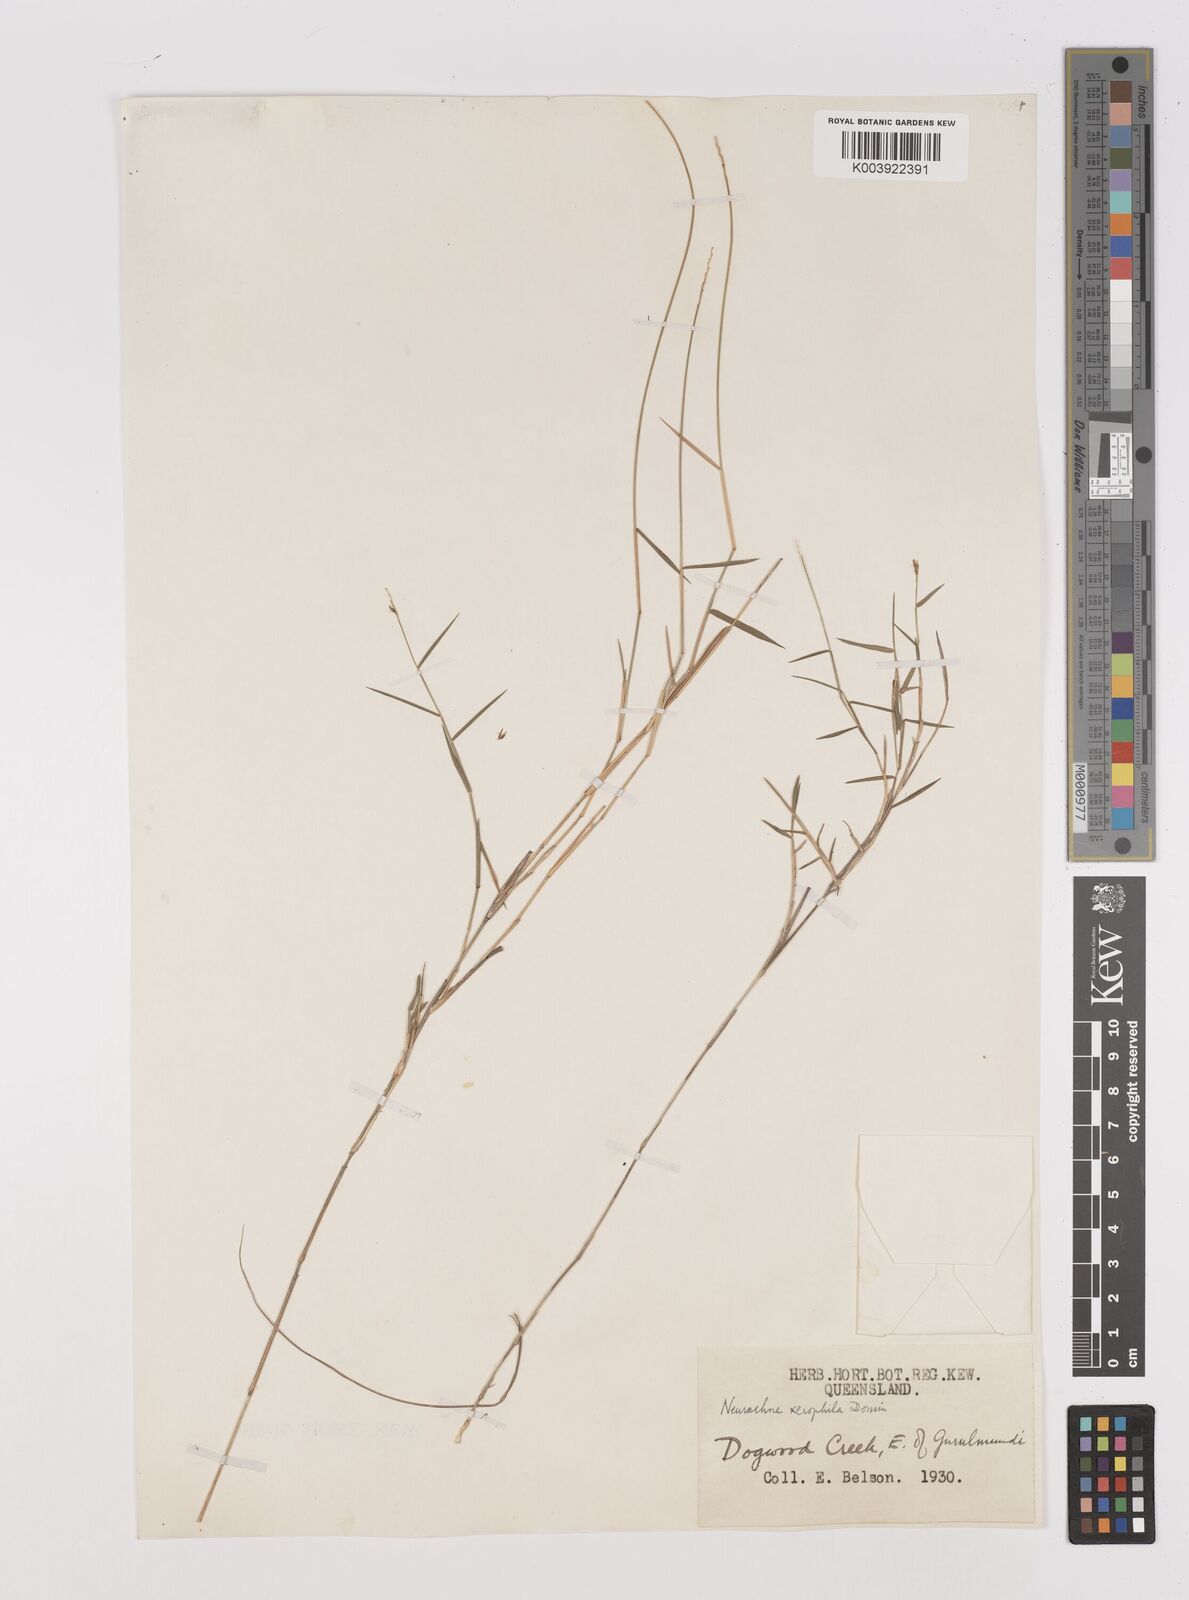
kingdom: Plantae
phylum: Tracheophyta
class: Liliopsida
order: Poales
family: Poaceae
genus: Thyridolepis
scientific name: Thyridolepis xerophila
